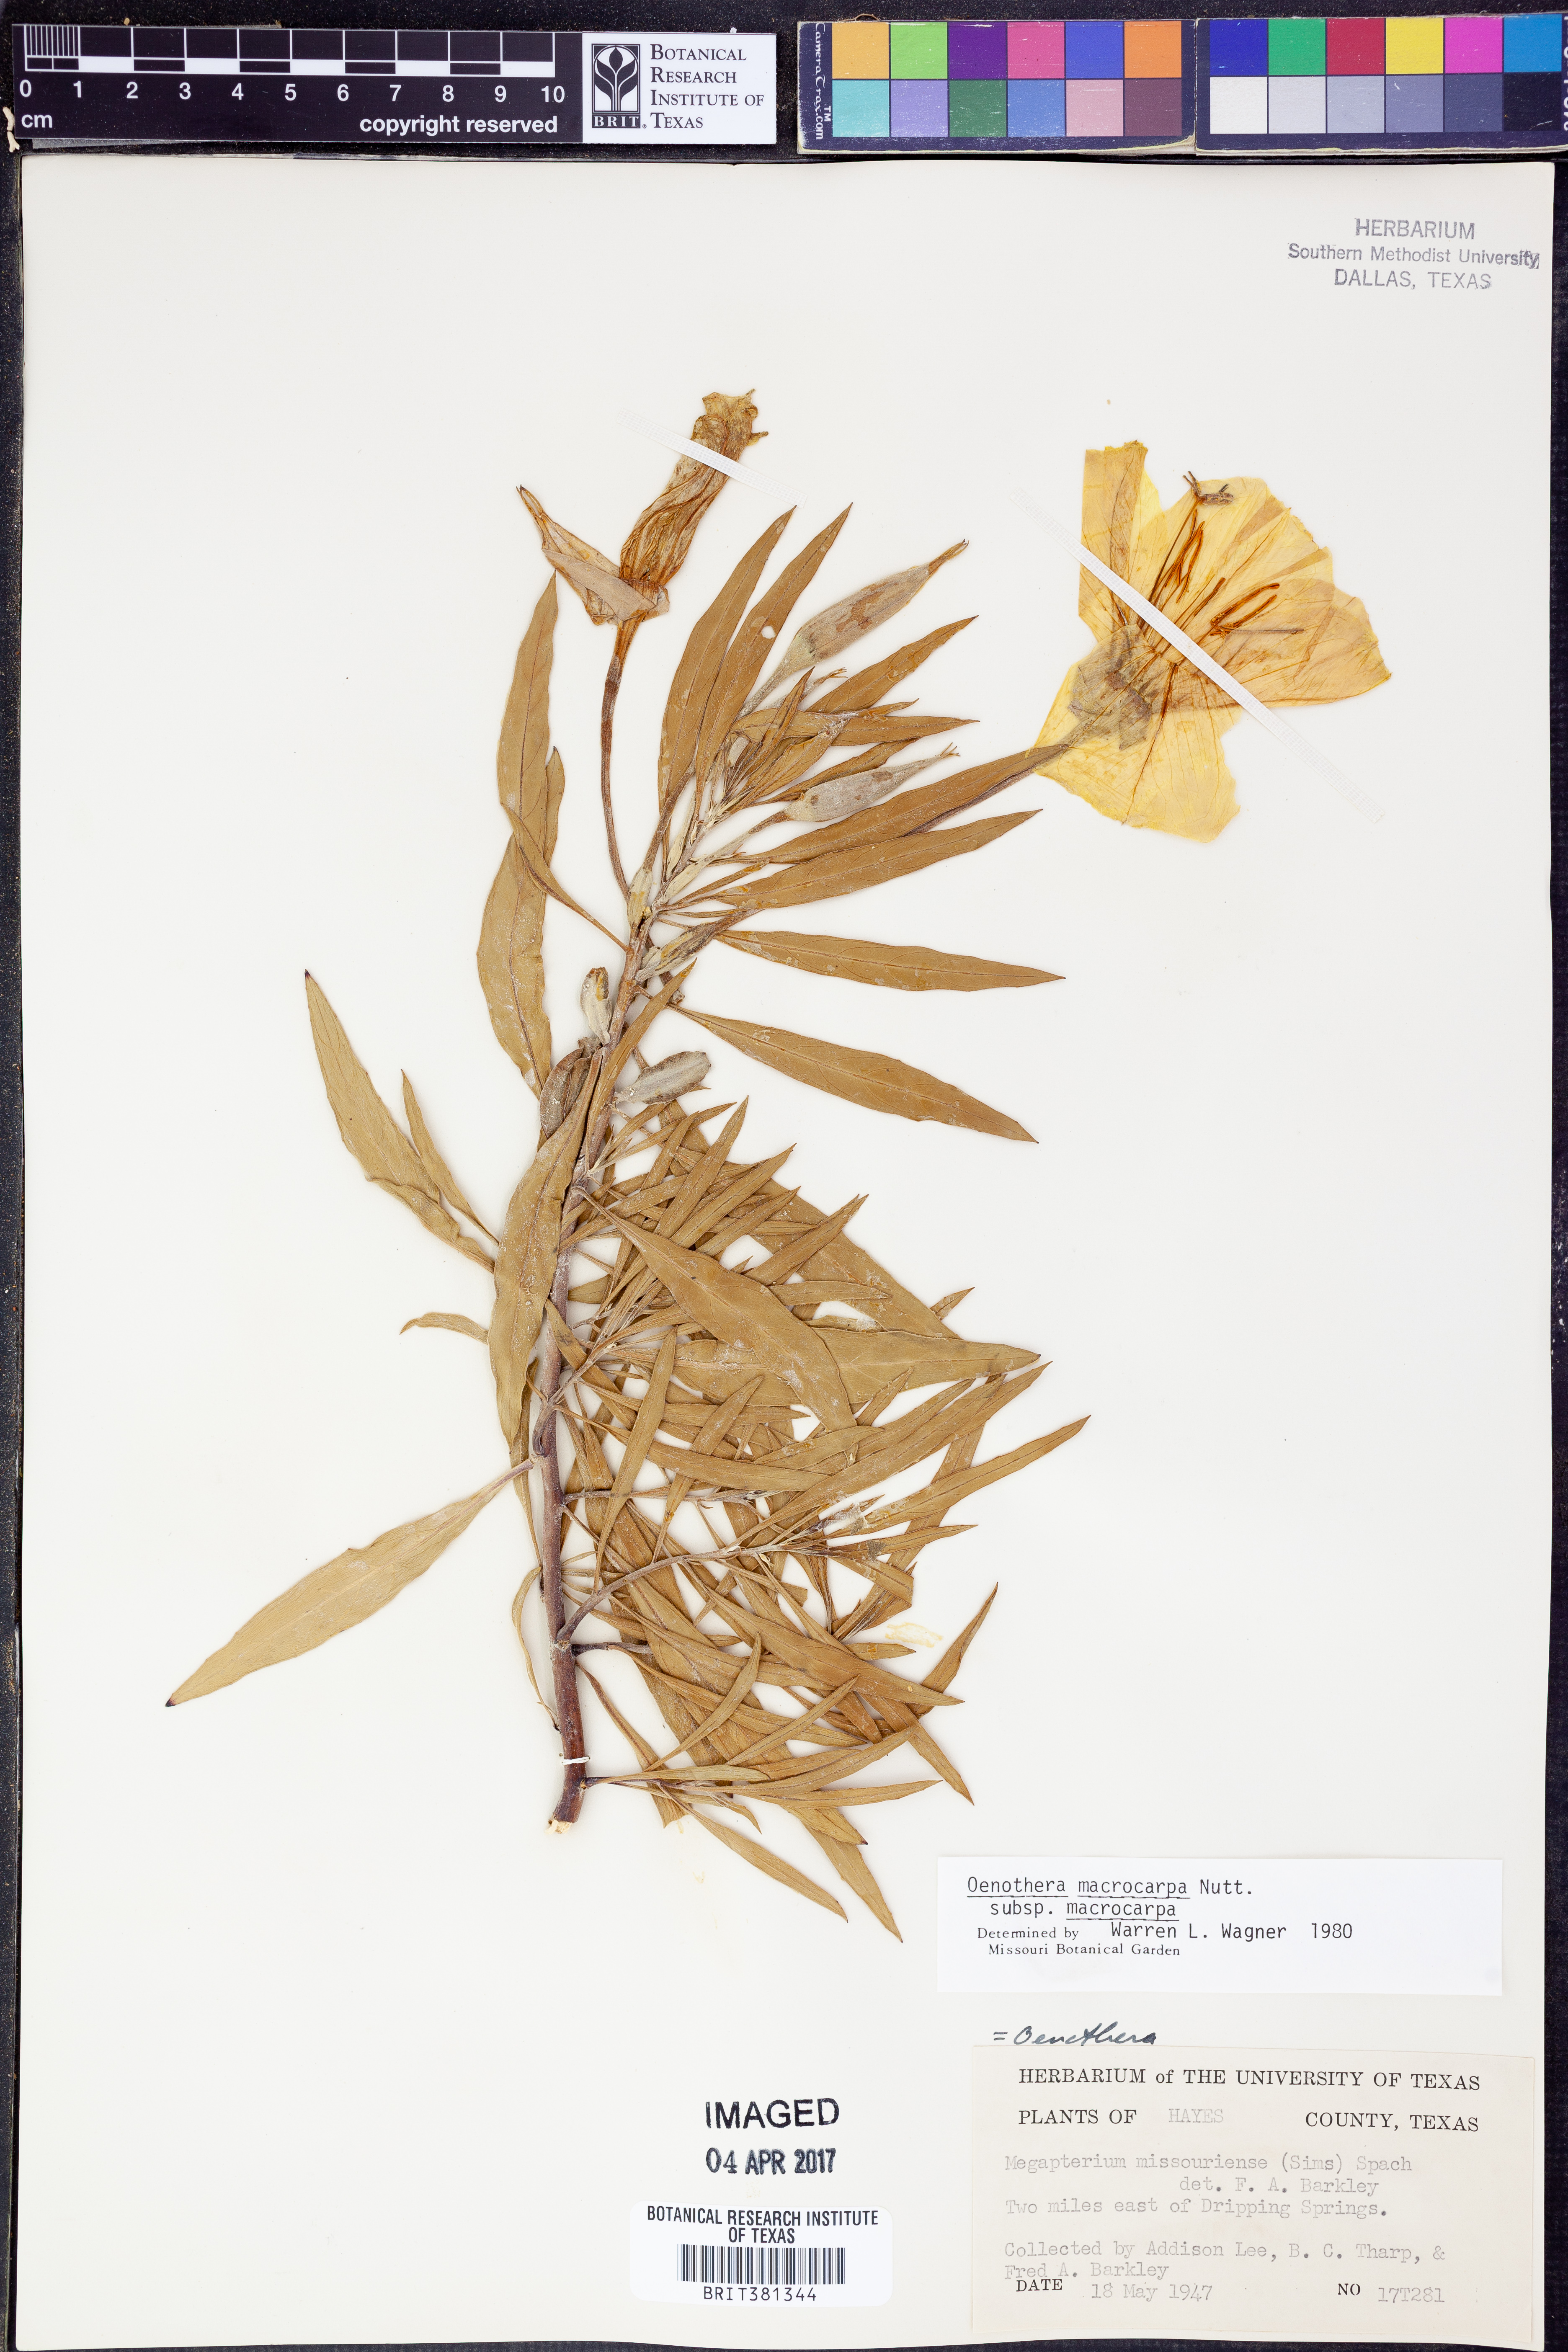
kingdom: Plantae
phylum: Tracheophyta
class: Magnoliopsida
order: Myrtales
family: Onagraceae
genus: Oenothera
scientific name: Oenothera macrocarpa
